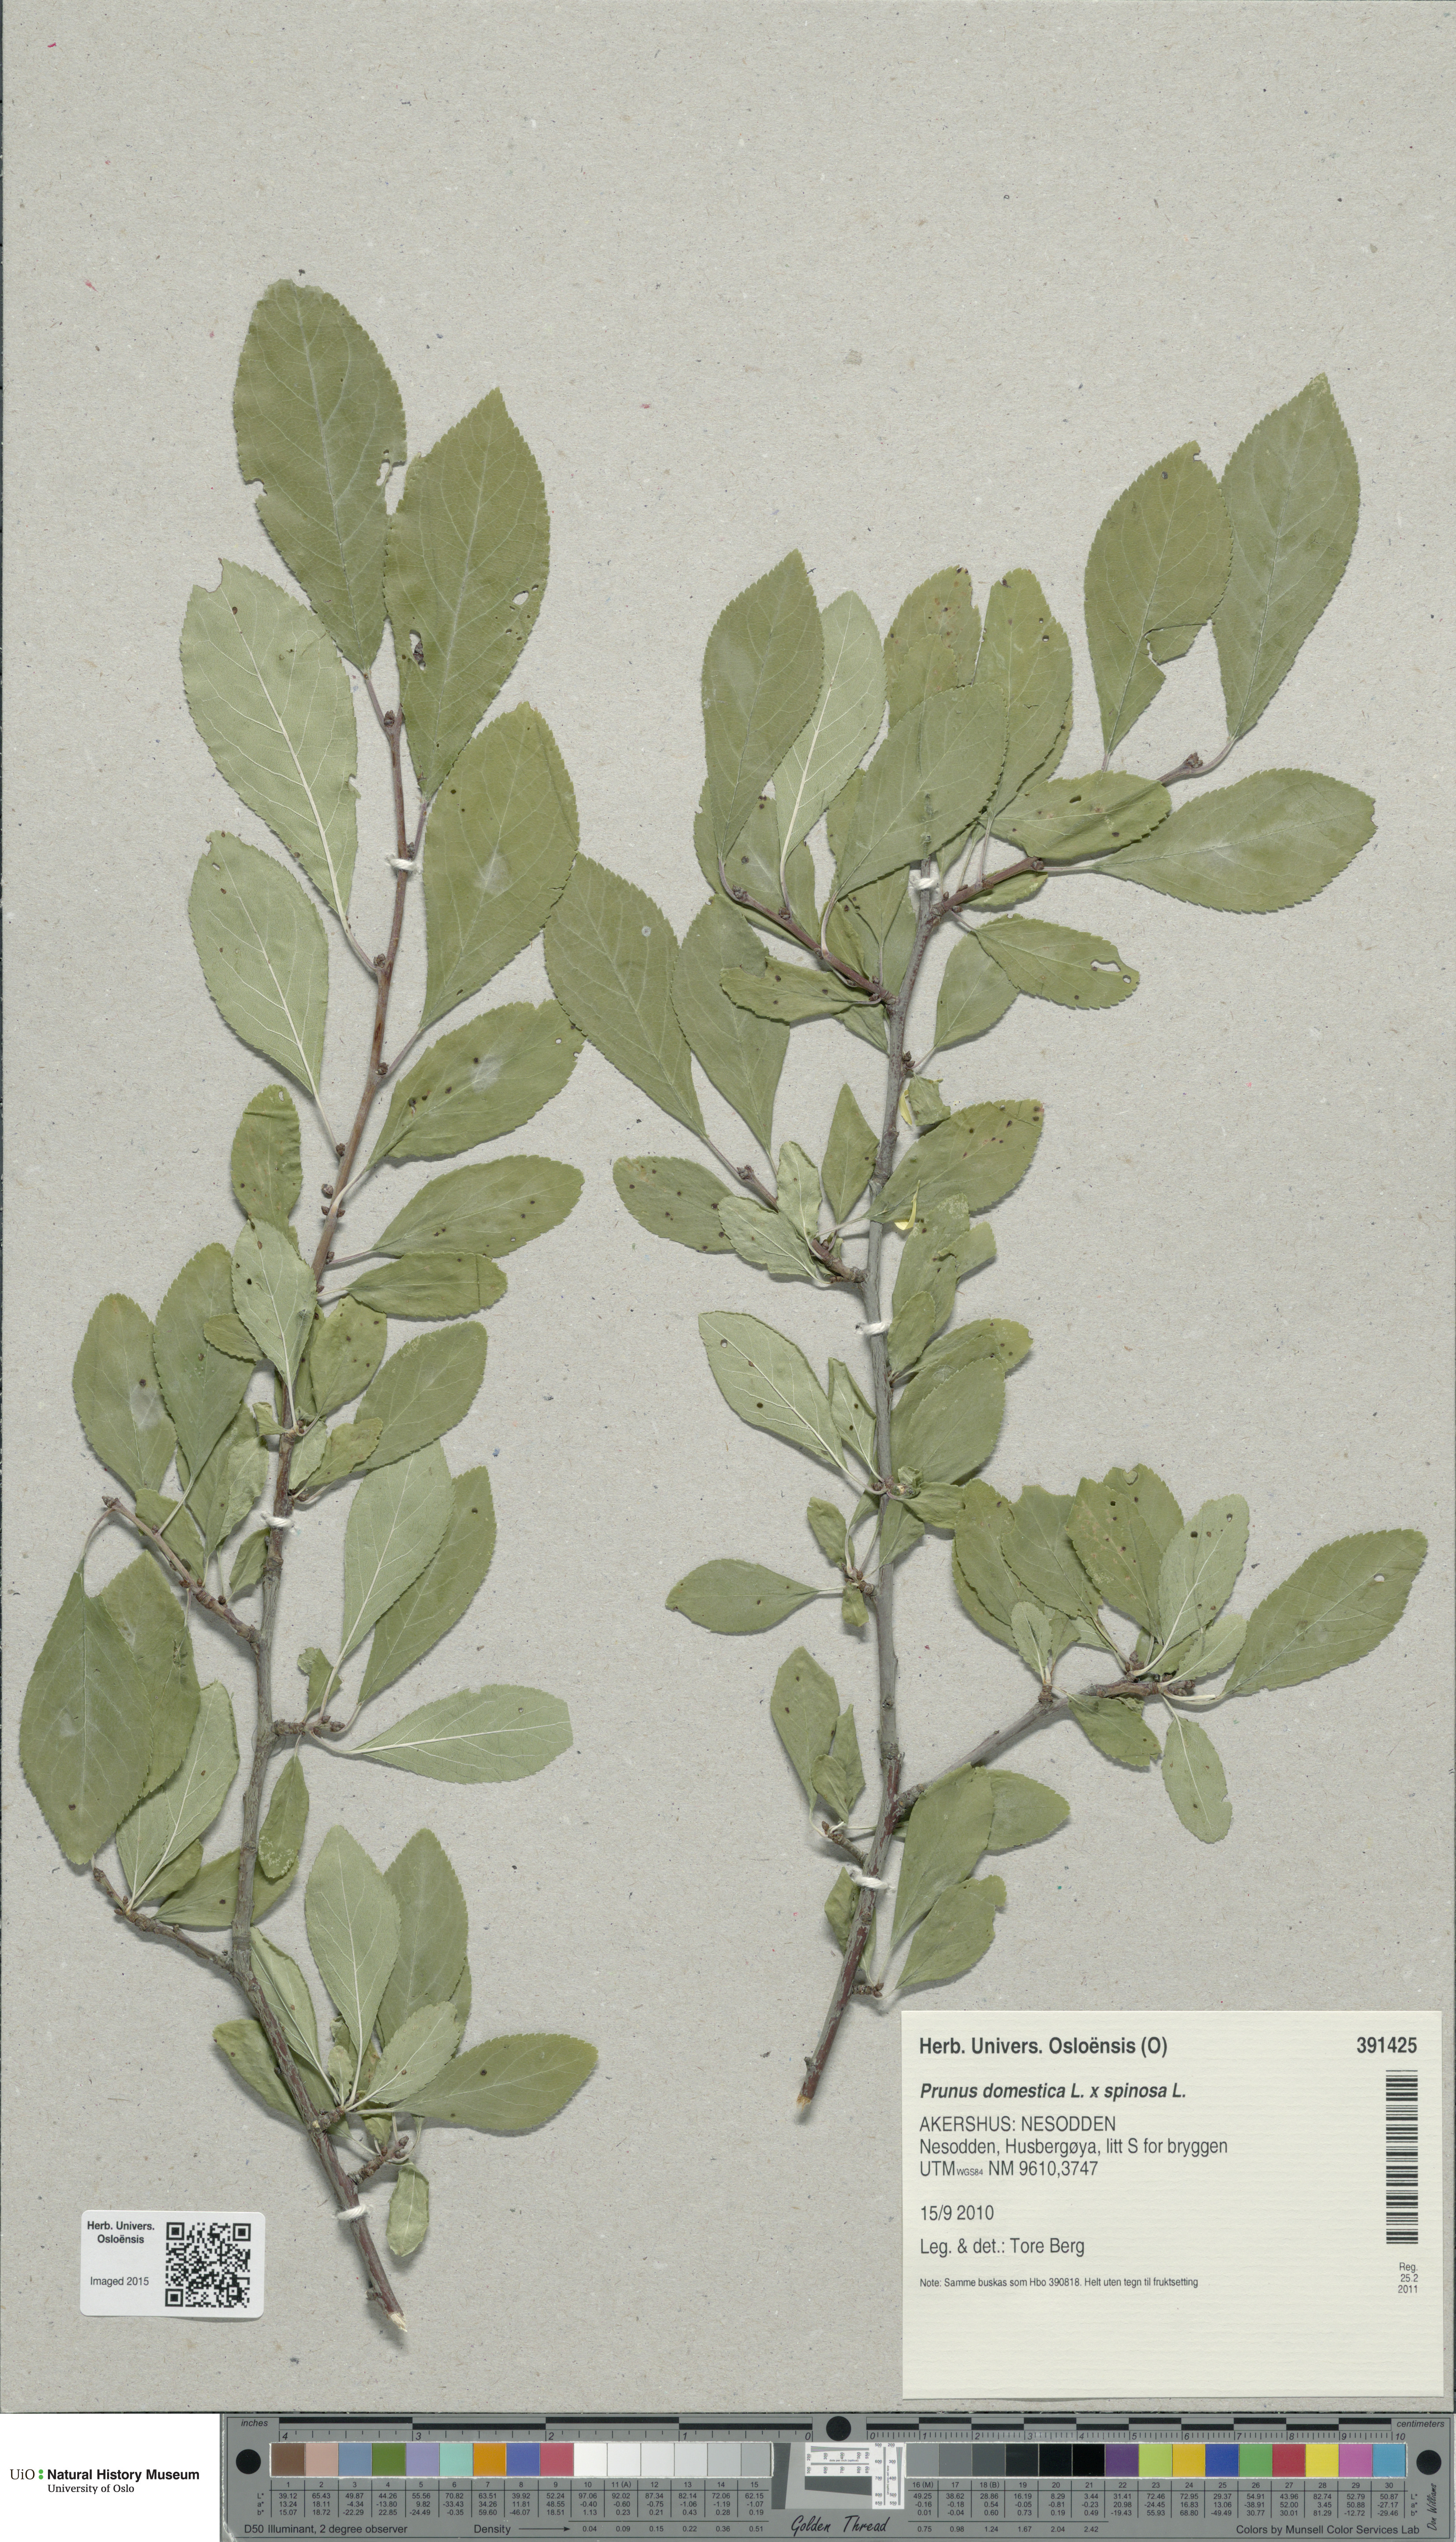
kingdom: Plantae
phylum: Tracheophyta
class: Magnoliopsida
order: Rosales
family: Rosaceae
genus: Prunus
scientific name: Prunus
